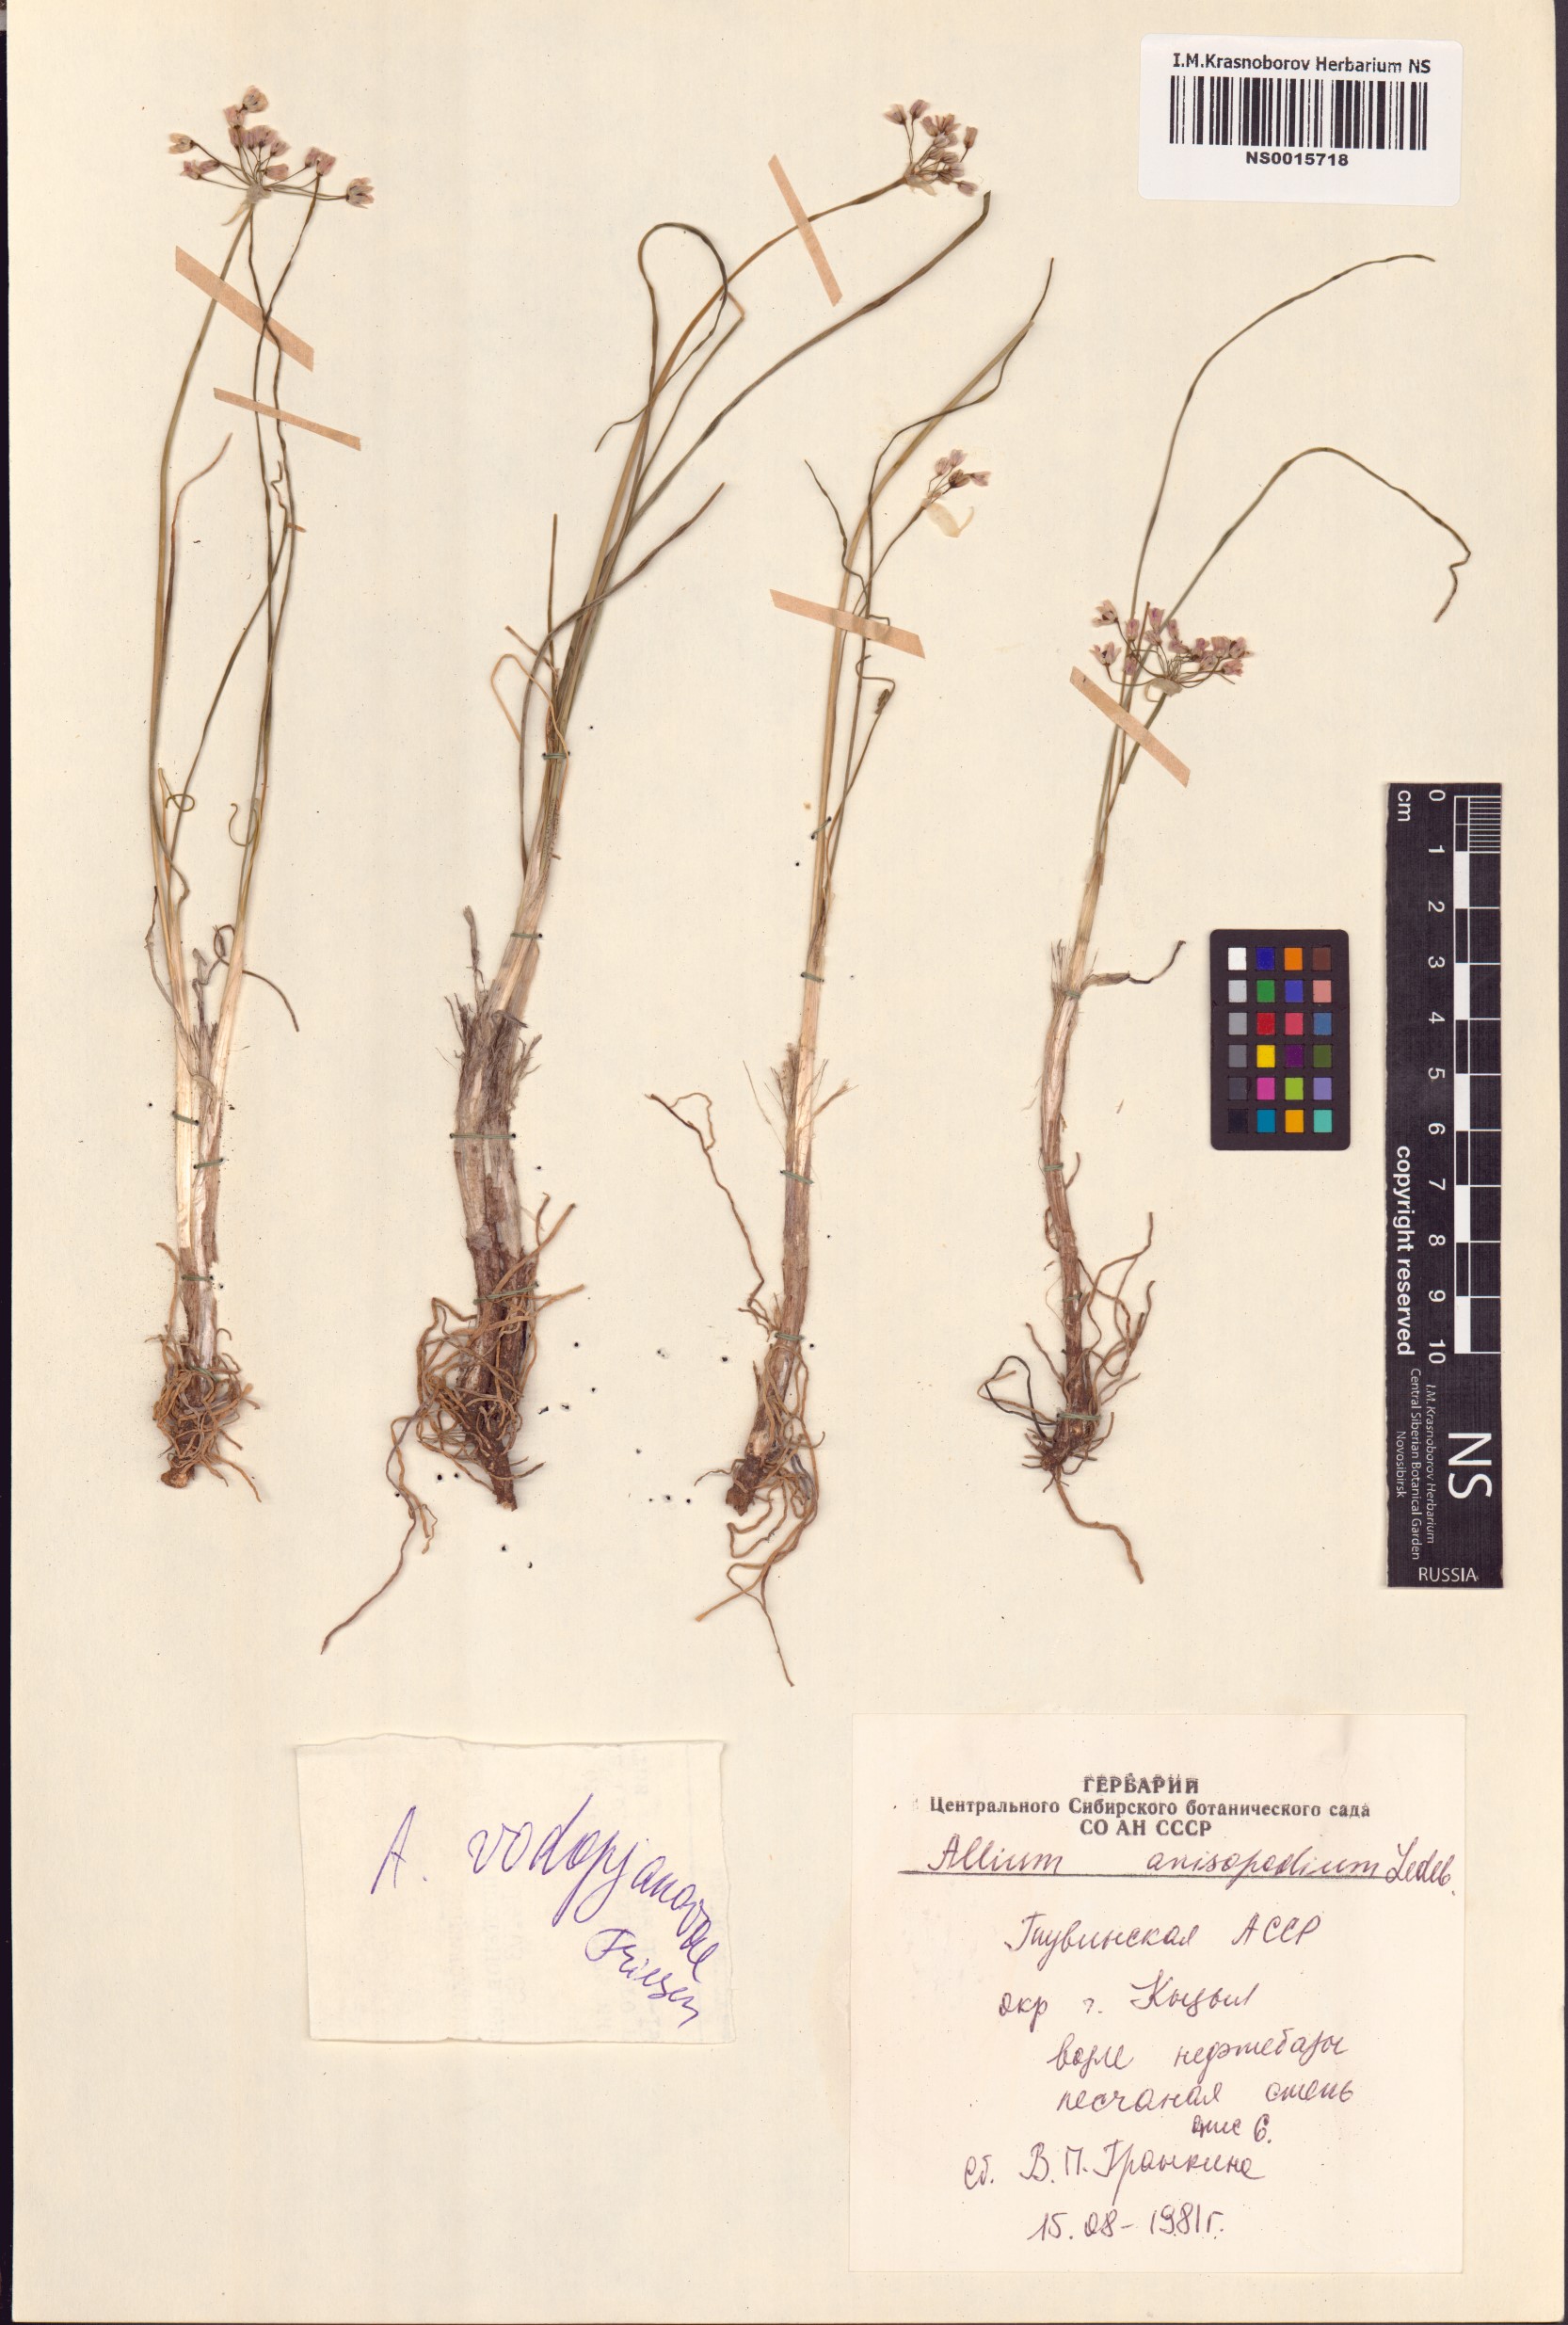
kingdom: Plantae
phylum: Tracheophyta
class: Liliopsida
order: Asparagales
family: Amaryllidaceae
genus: Allium
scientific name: Allium vodopjanovae
